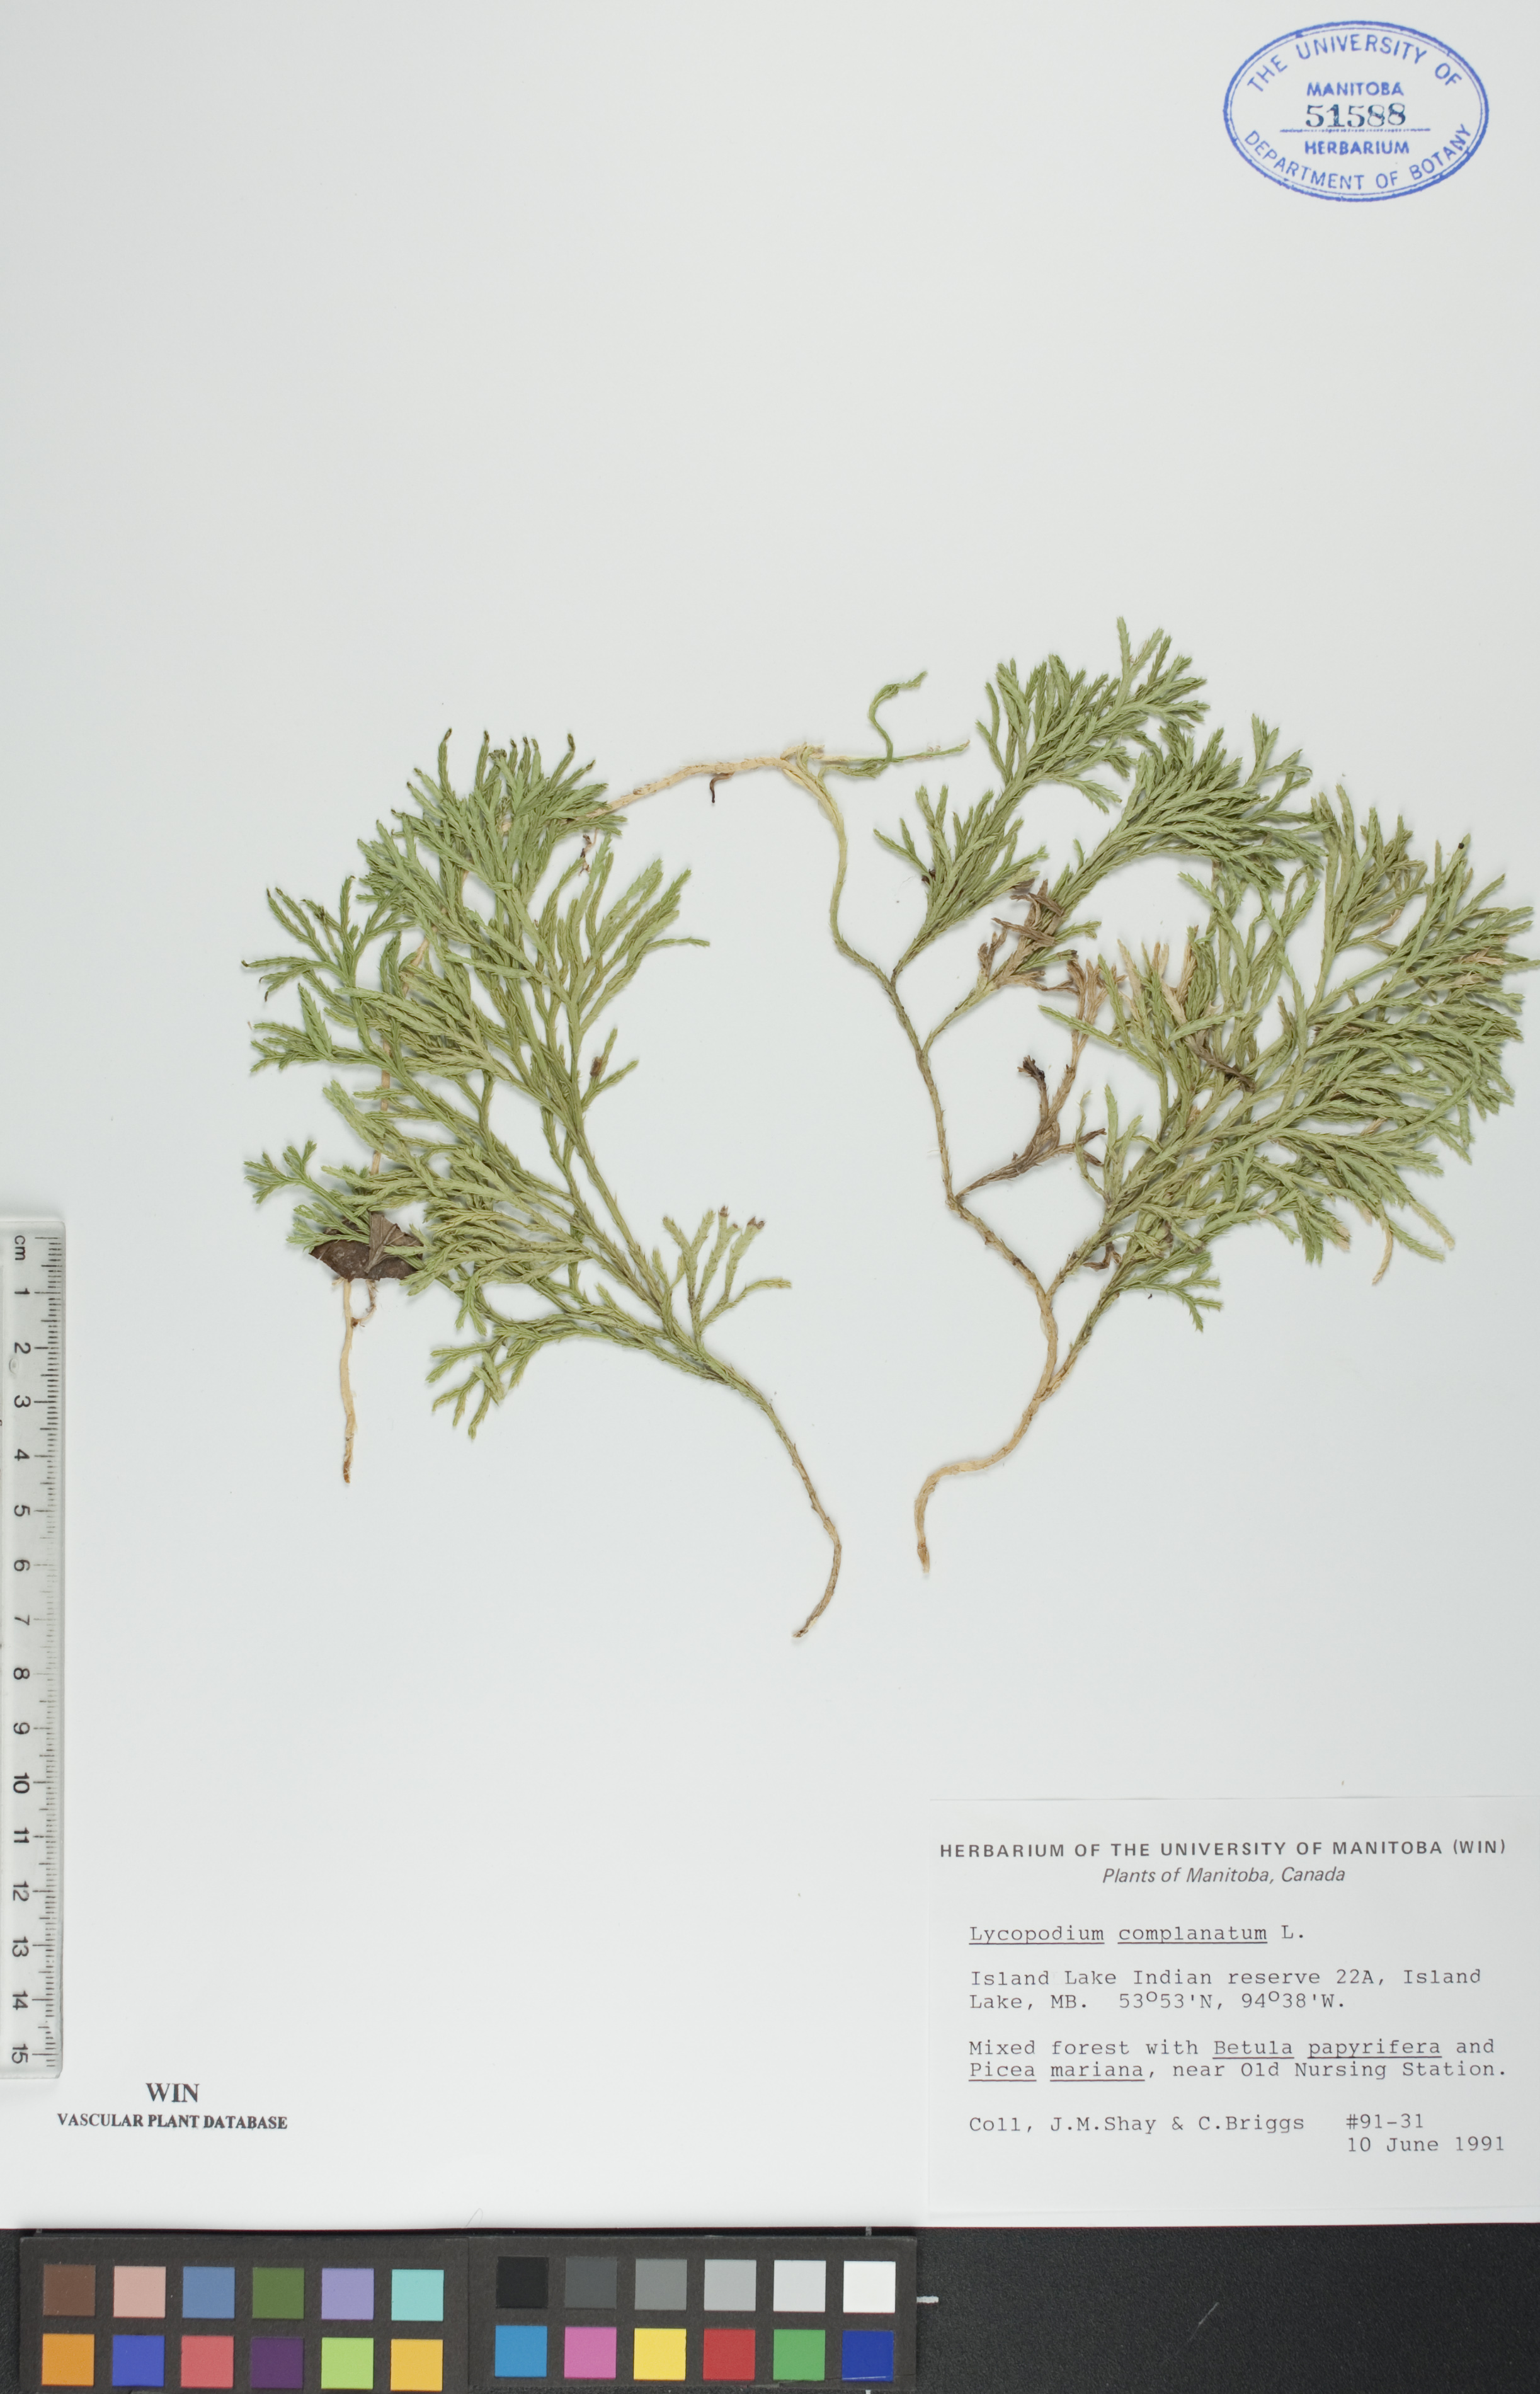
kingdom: Plantae
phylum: Tracheophyta
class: Lycopodiopsida
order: Lycopodiales
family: Lycopodiaceae
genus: Diphasiastrum
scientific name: Diphasiastrum
